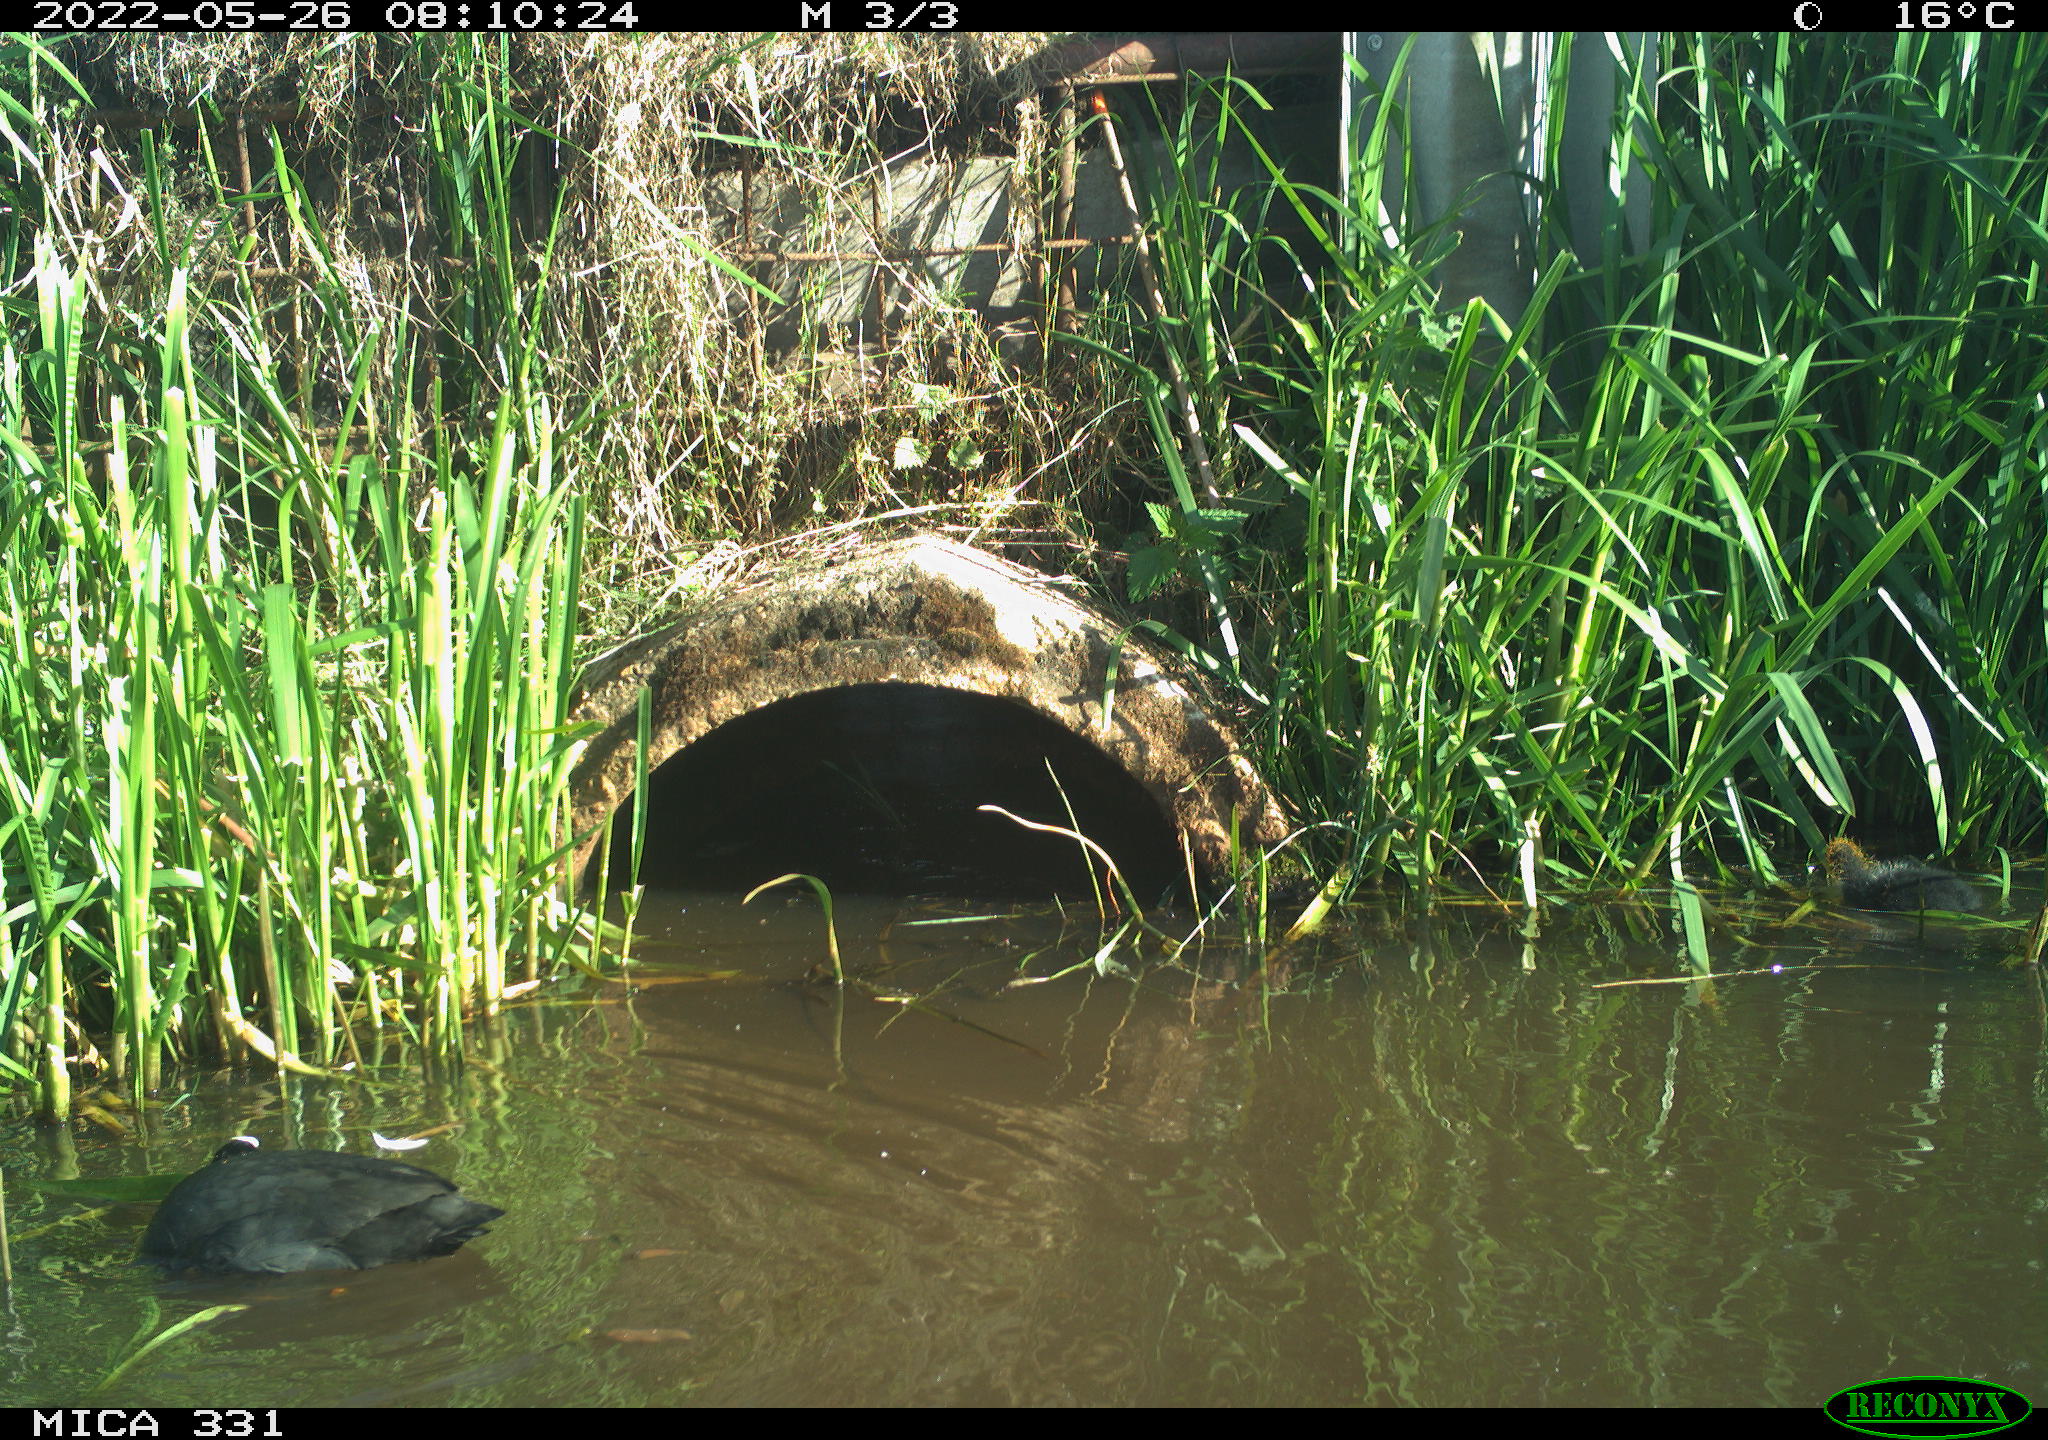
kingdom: Animalia
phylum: Chordata
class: Aves
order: Gruiformes
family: Rallidae
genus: Fulica
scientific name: Fulica atra
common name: Eurasian coot
